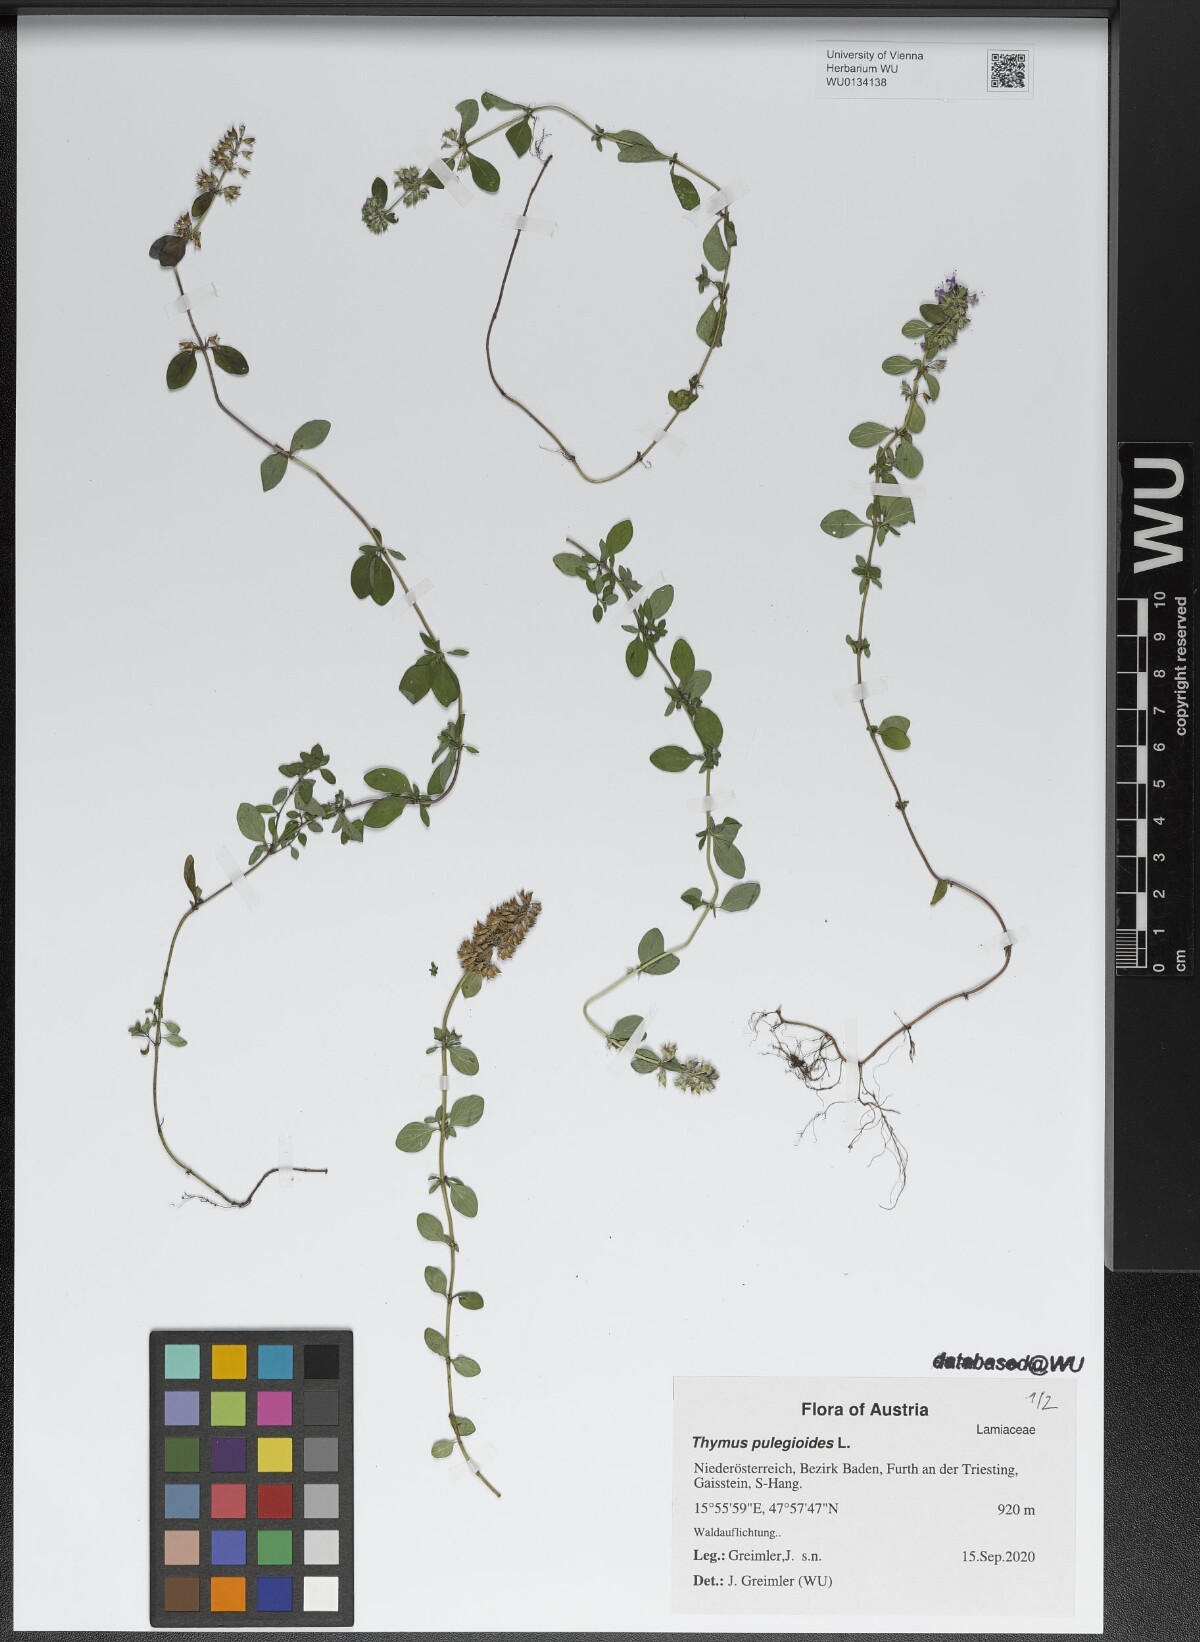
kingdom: Plantae
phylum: Tracheophyta
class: Magnoliopsida
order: Lamiales
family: Lamiaceae
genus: Thymus
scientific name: Thymus pulegioides
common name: Large thyme
